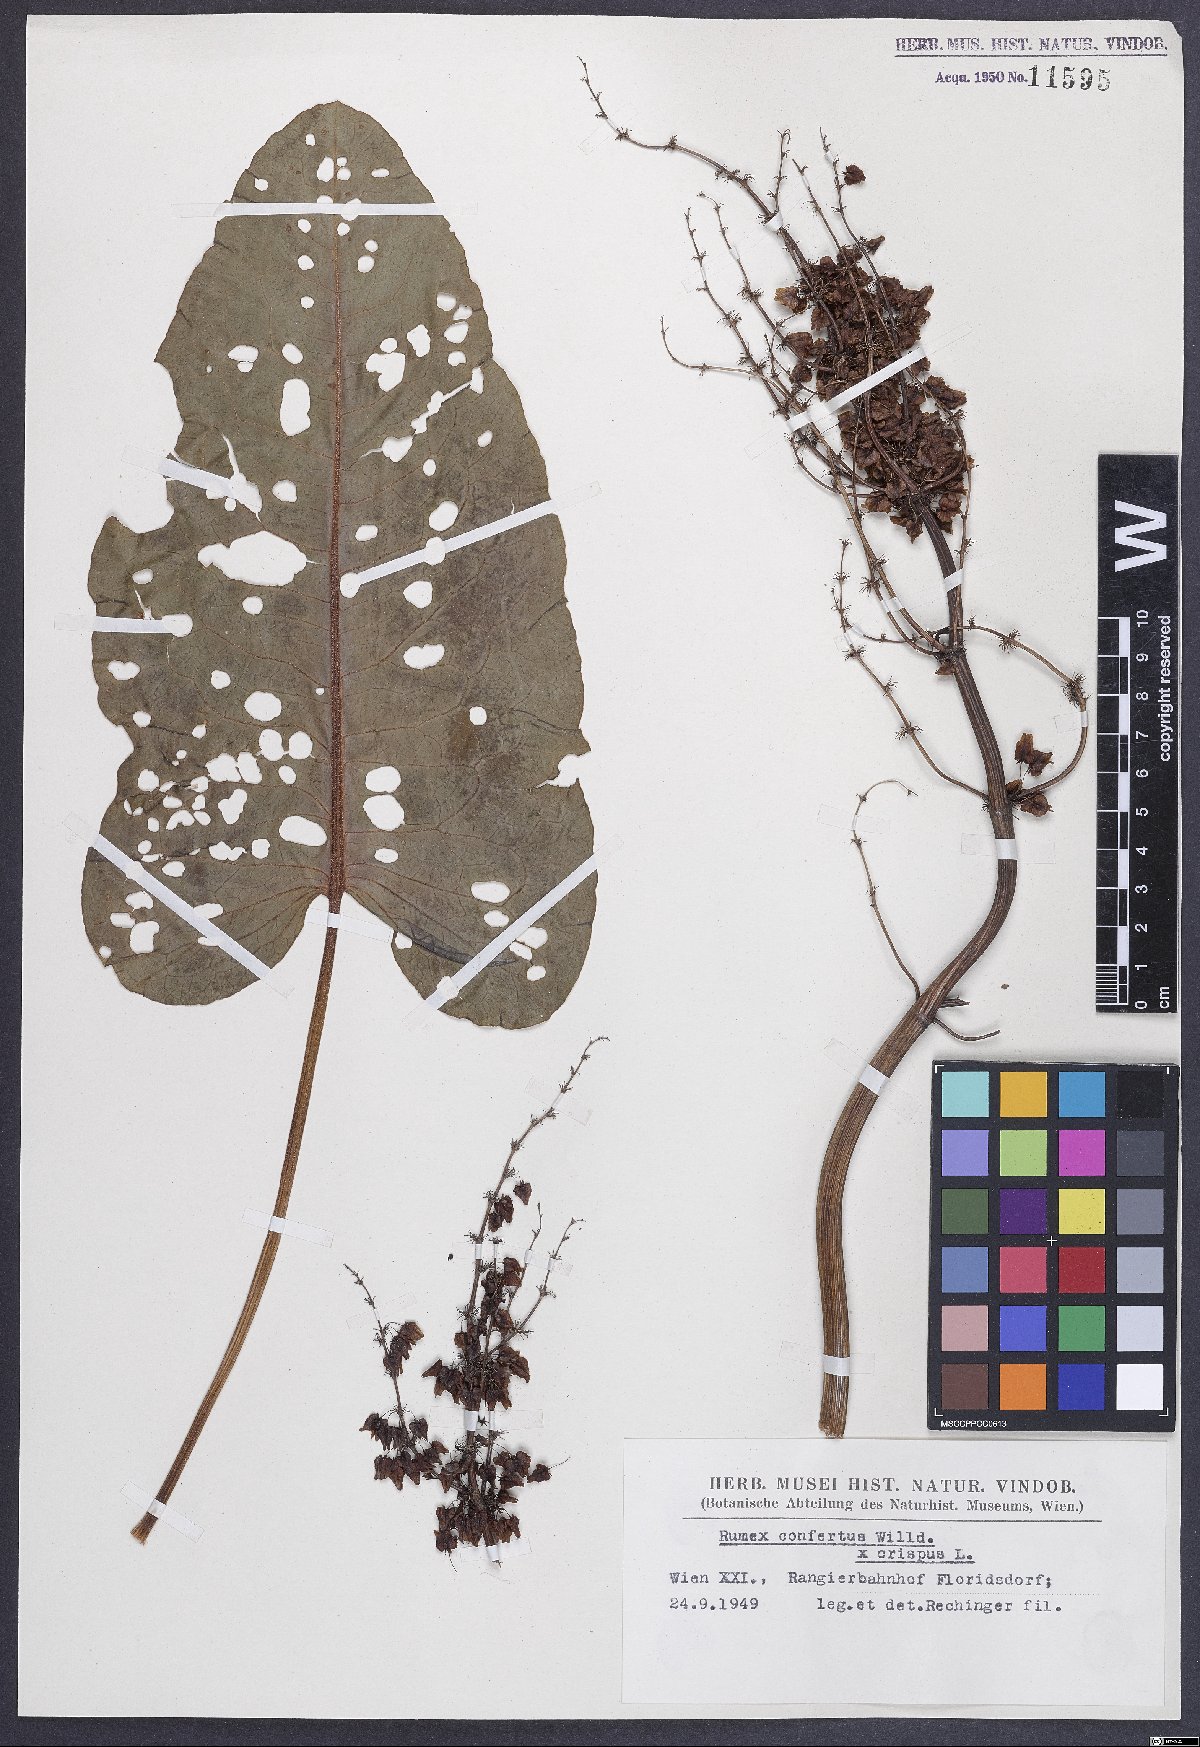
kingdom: Plantae
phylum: Tracheophyta
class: Magnoliopsida
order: Caryophyllales
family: Polygonaceae
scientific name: Polygonaceae
